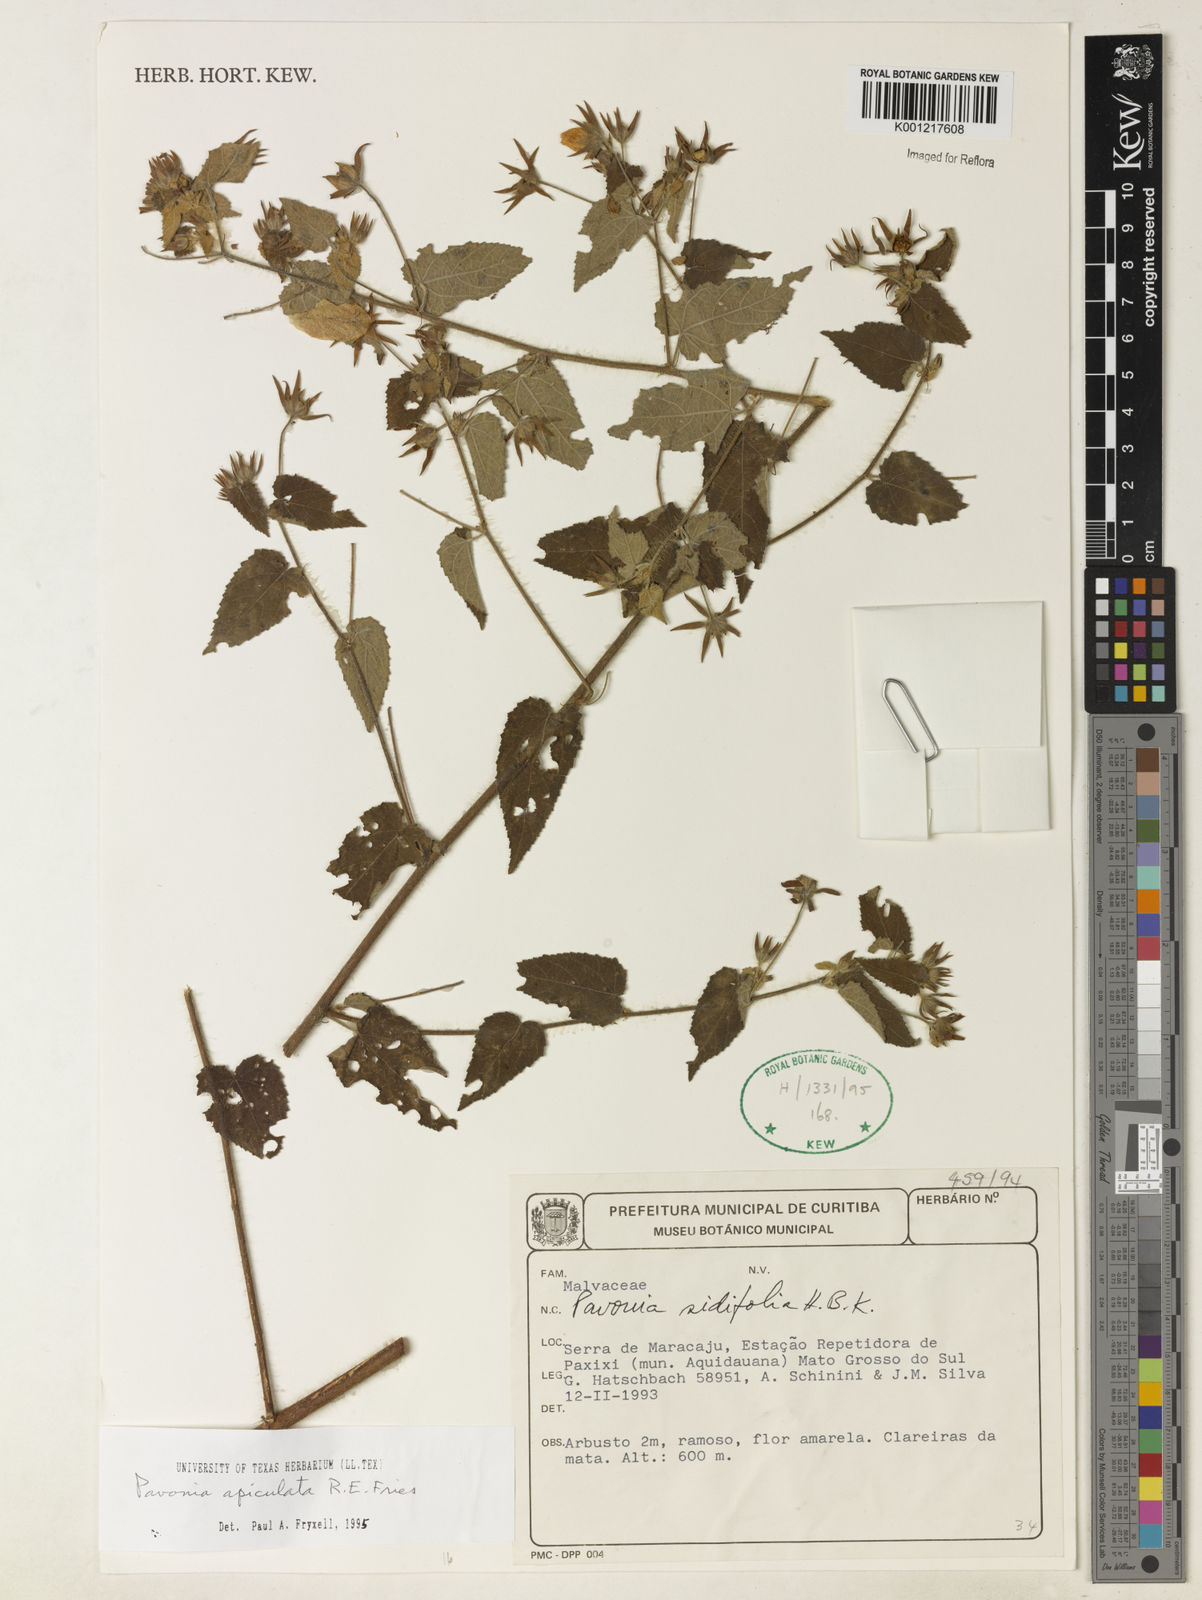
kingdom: Plantae
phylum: Tracheophyta
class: Magnoliopsida
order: Malvales
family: Malvaceae
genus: Pavonia
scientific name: Pavonia apiculata
